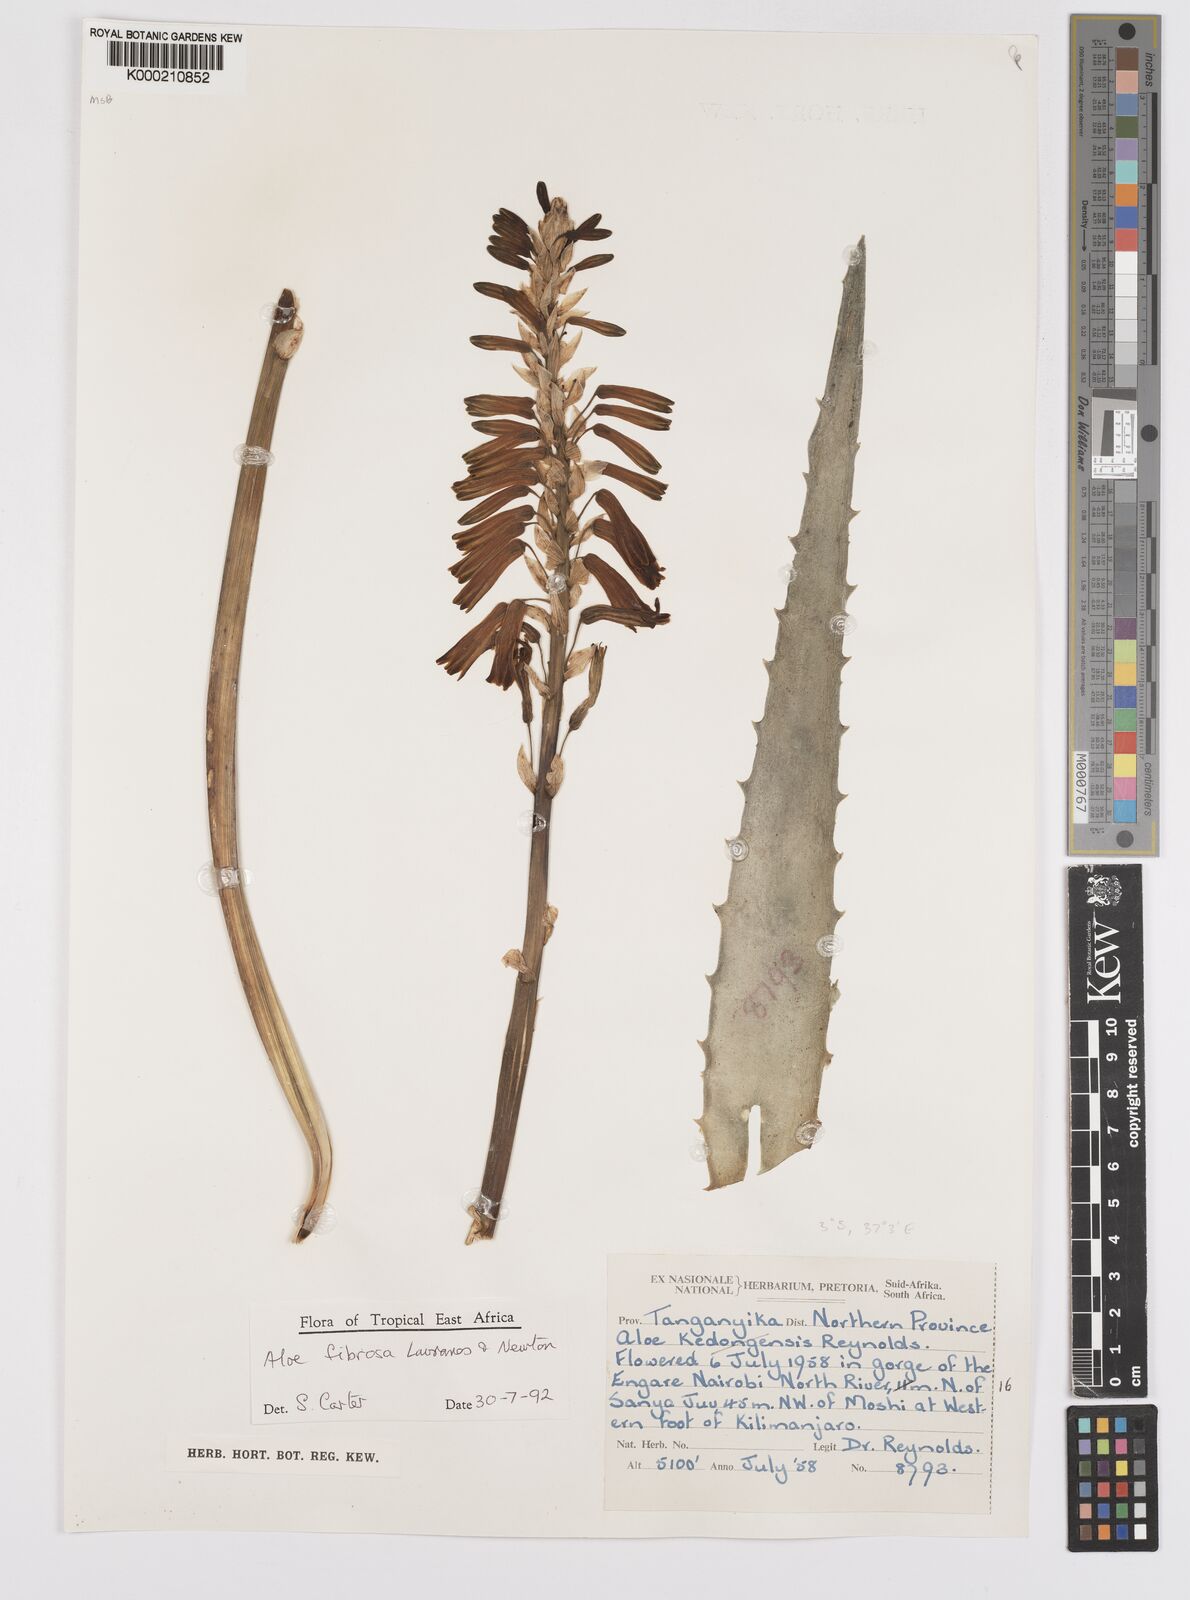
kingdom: Plantae
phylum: Tracheophyta
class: Liliopsida
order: Asparagales
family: Asphodelaceae
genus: Aloe
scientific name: Aloe fibrosa
